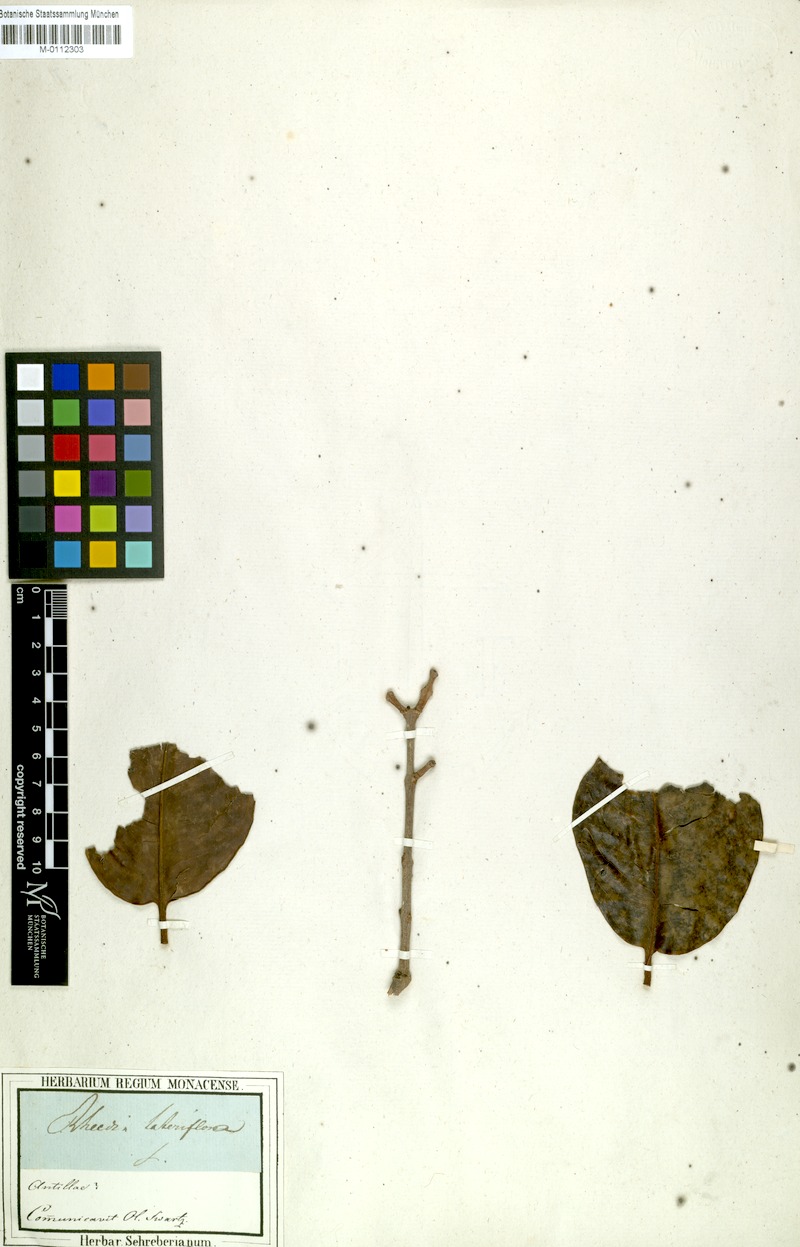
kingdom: Plantae
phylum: Tracheophyta
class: Magnoliopsida
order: Malpighiales
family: Clusiaceae
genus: Garcinia
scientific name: Garcinia humilis
